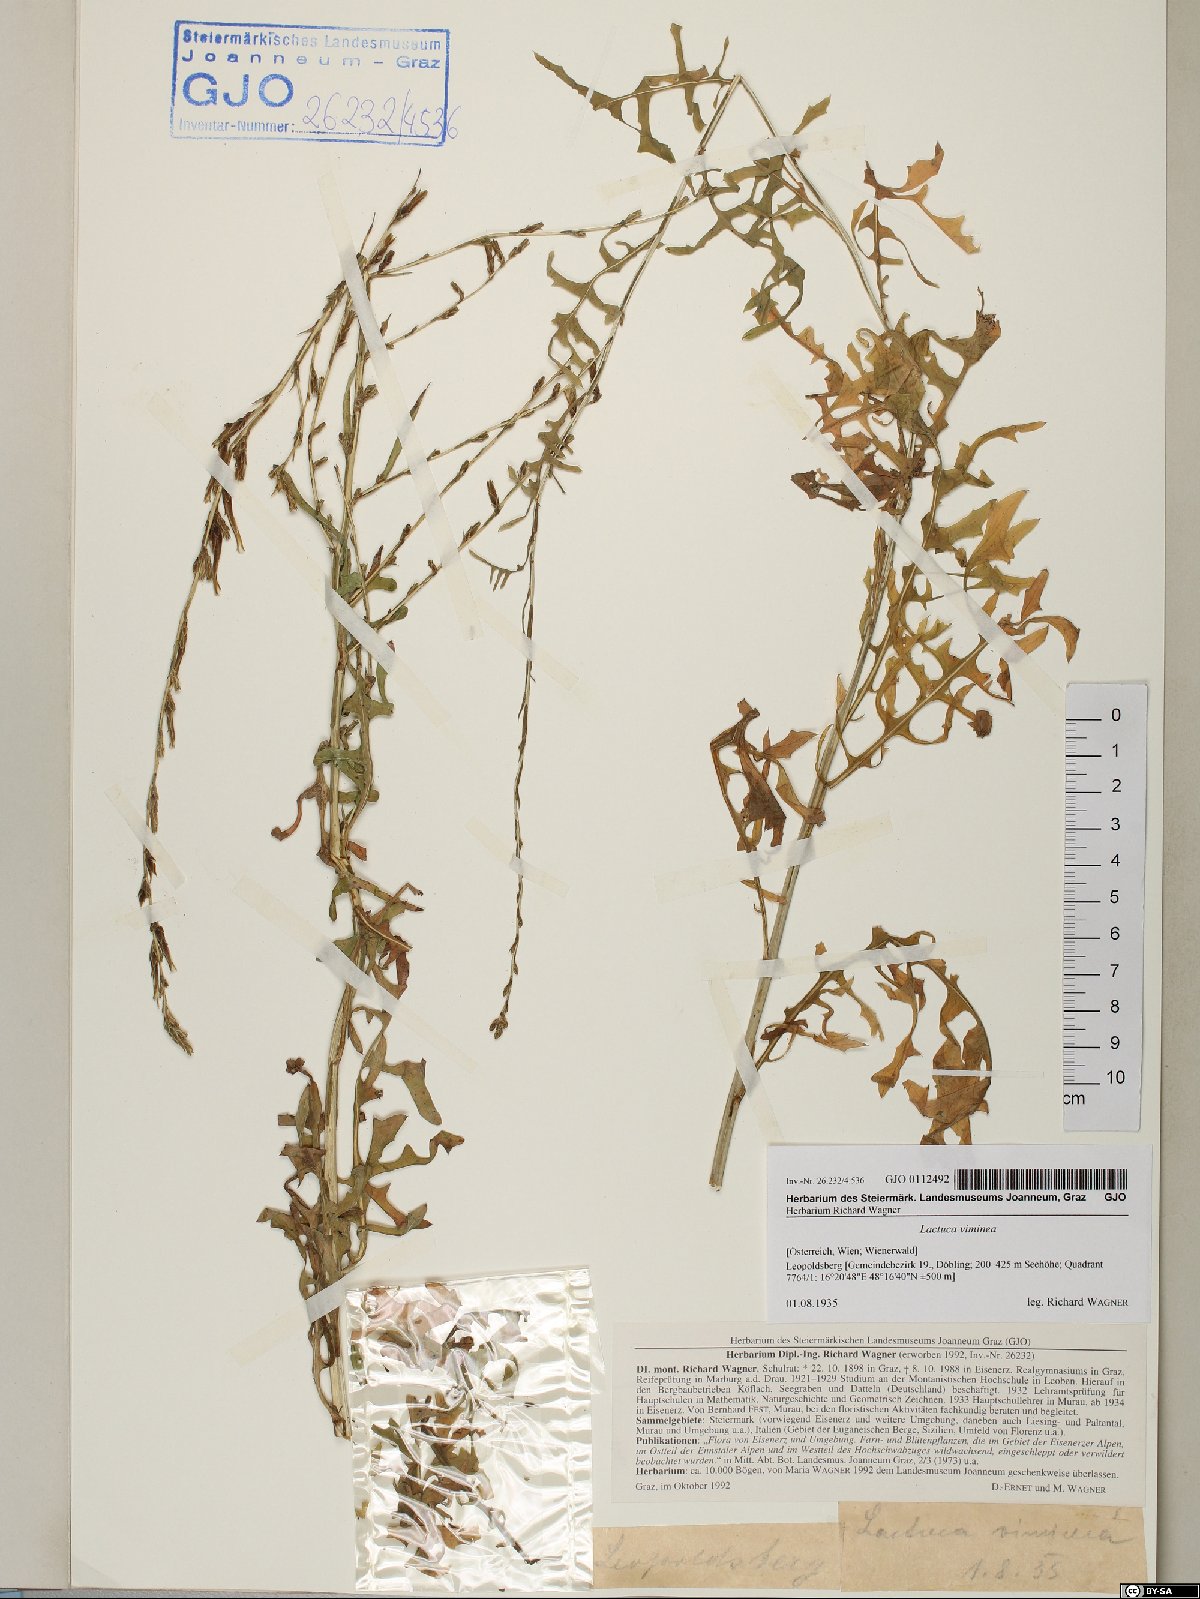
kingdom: Plantae
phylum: Tracheophyta
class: Magnoliopsida
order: Asterales
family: Asteraceae
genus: Lactuca
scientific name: Lactuca viminea
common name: Pliant lettuce
